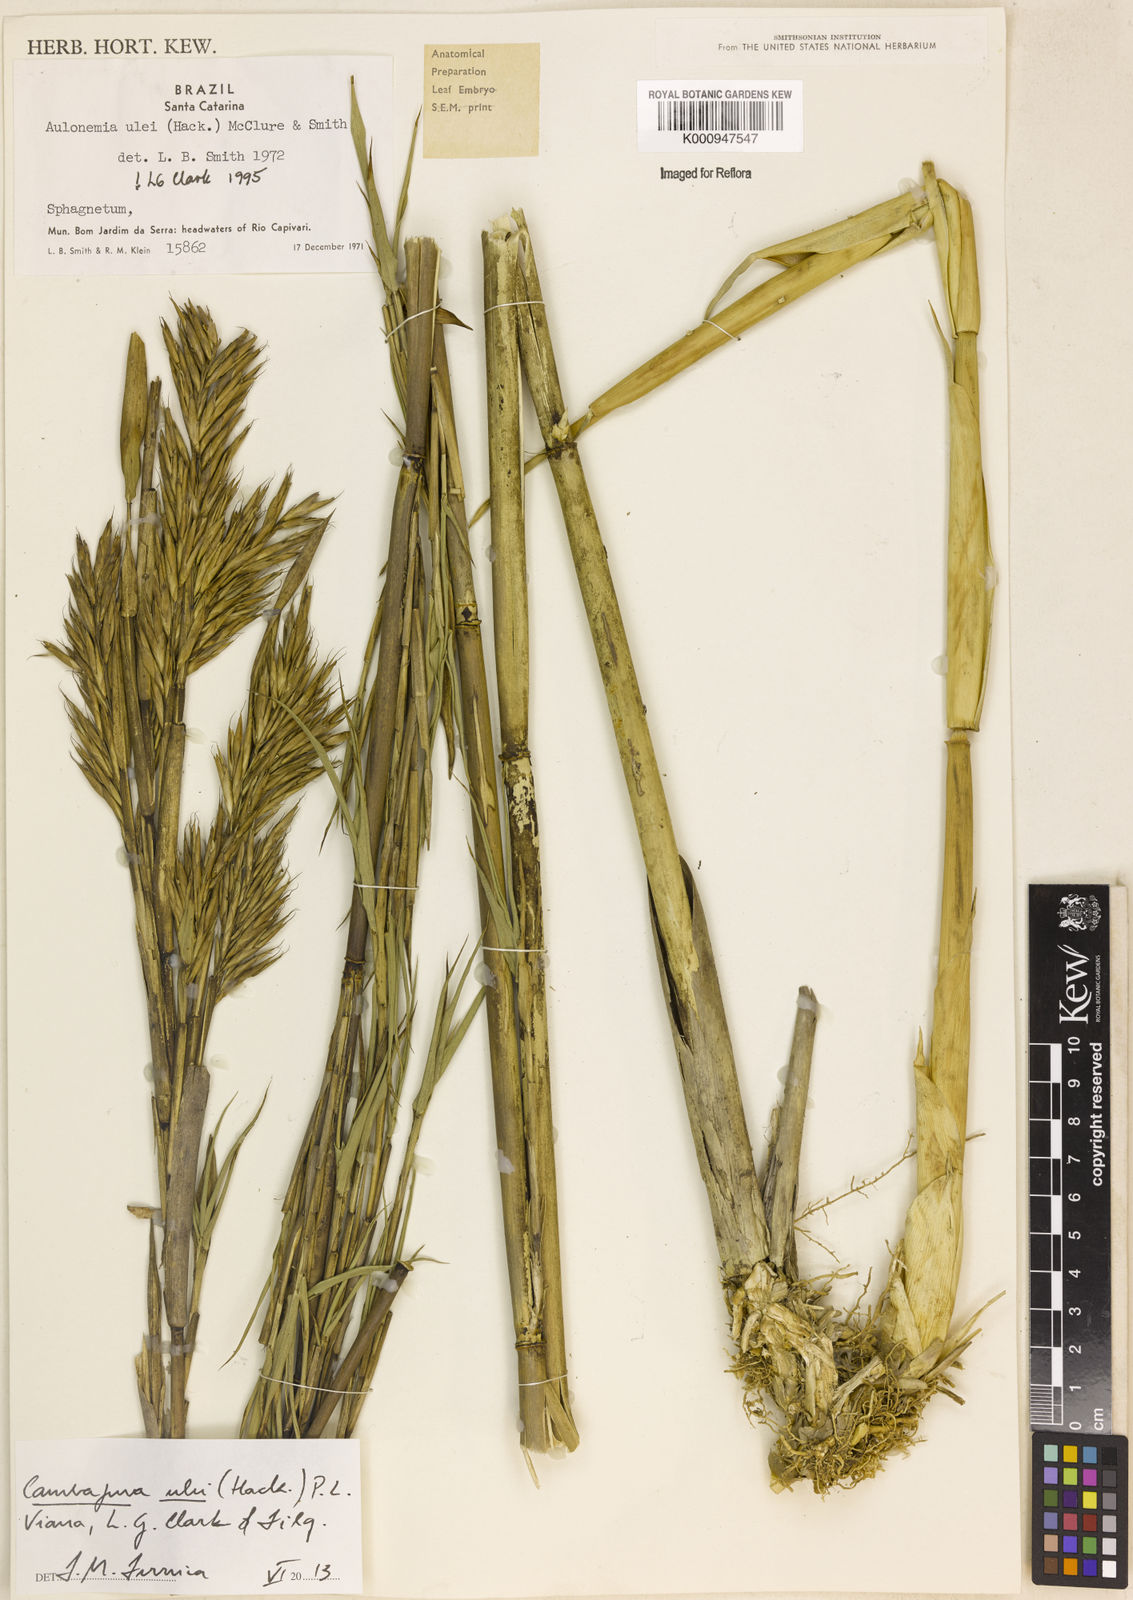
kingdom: Plantae
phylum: Tracheophyta
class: Liliopsida
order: Poales
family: Poaceae
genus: Cambajuva
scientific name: Cambajuva ulei
